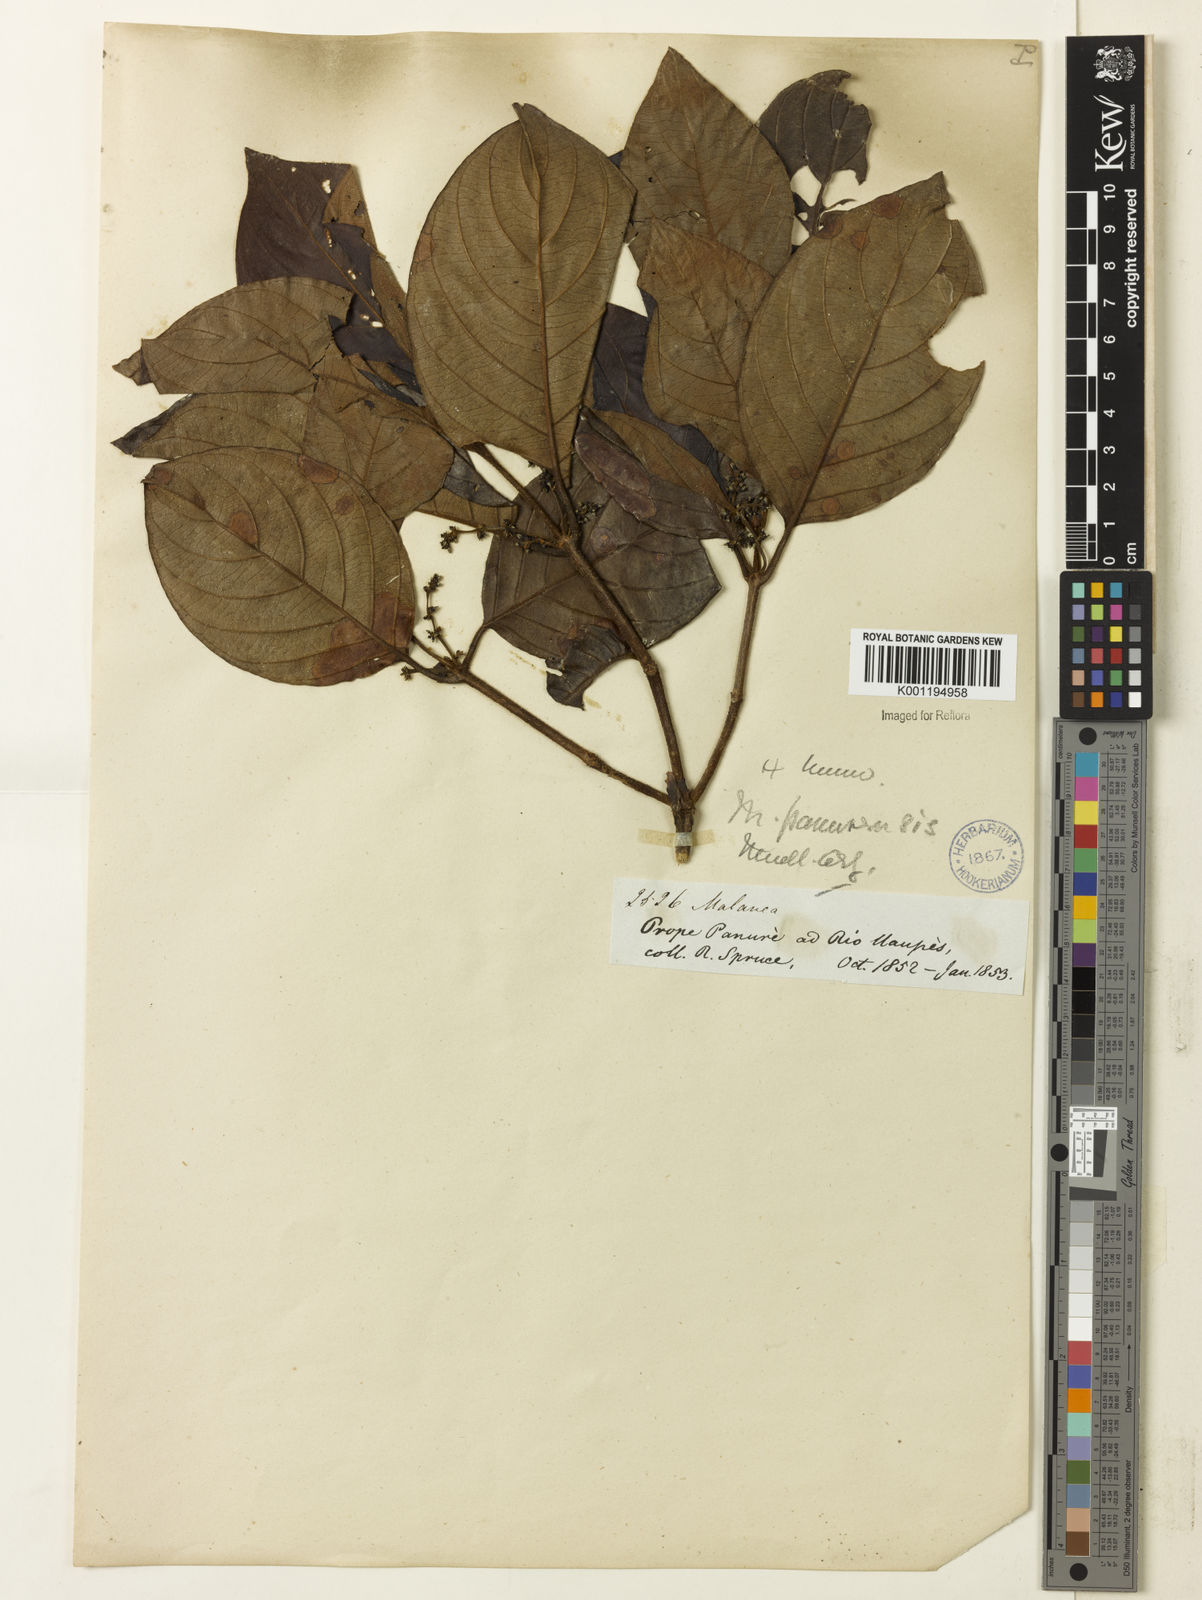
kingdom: Plantae
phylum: Tracheophyta
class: Magnoliopsida
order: Gentianales
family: Rubiaceae
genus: Malanea
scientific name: Malanea
